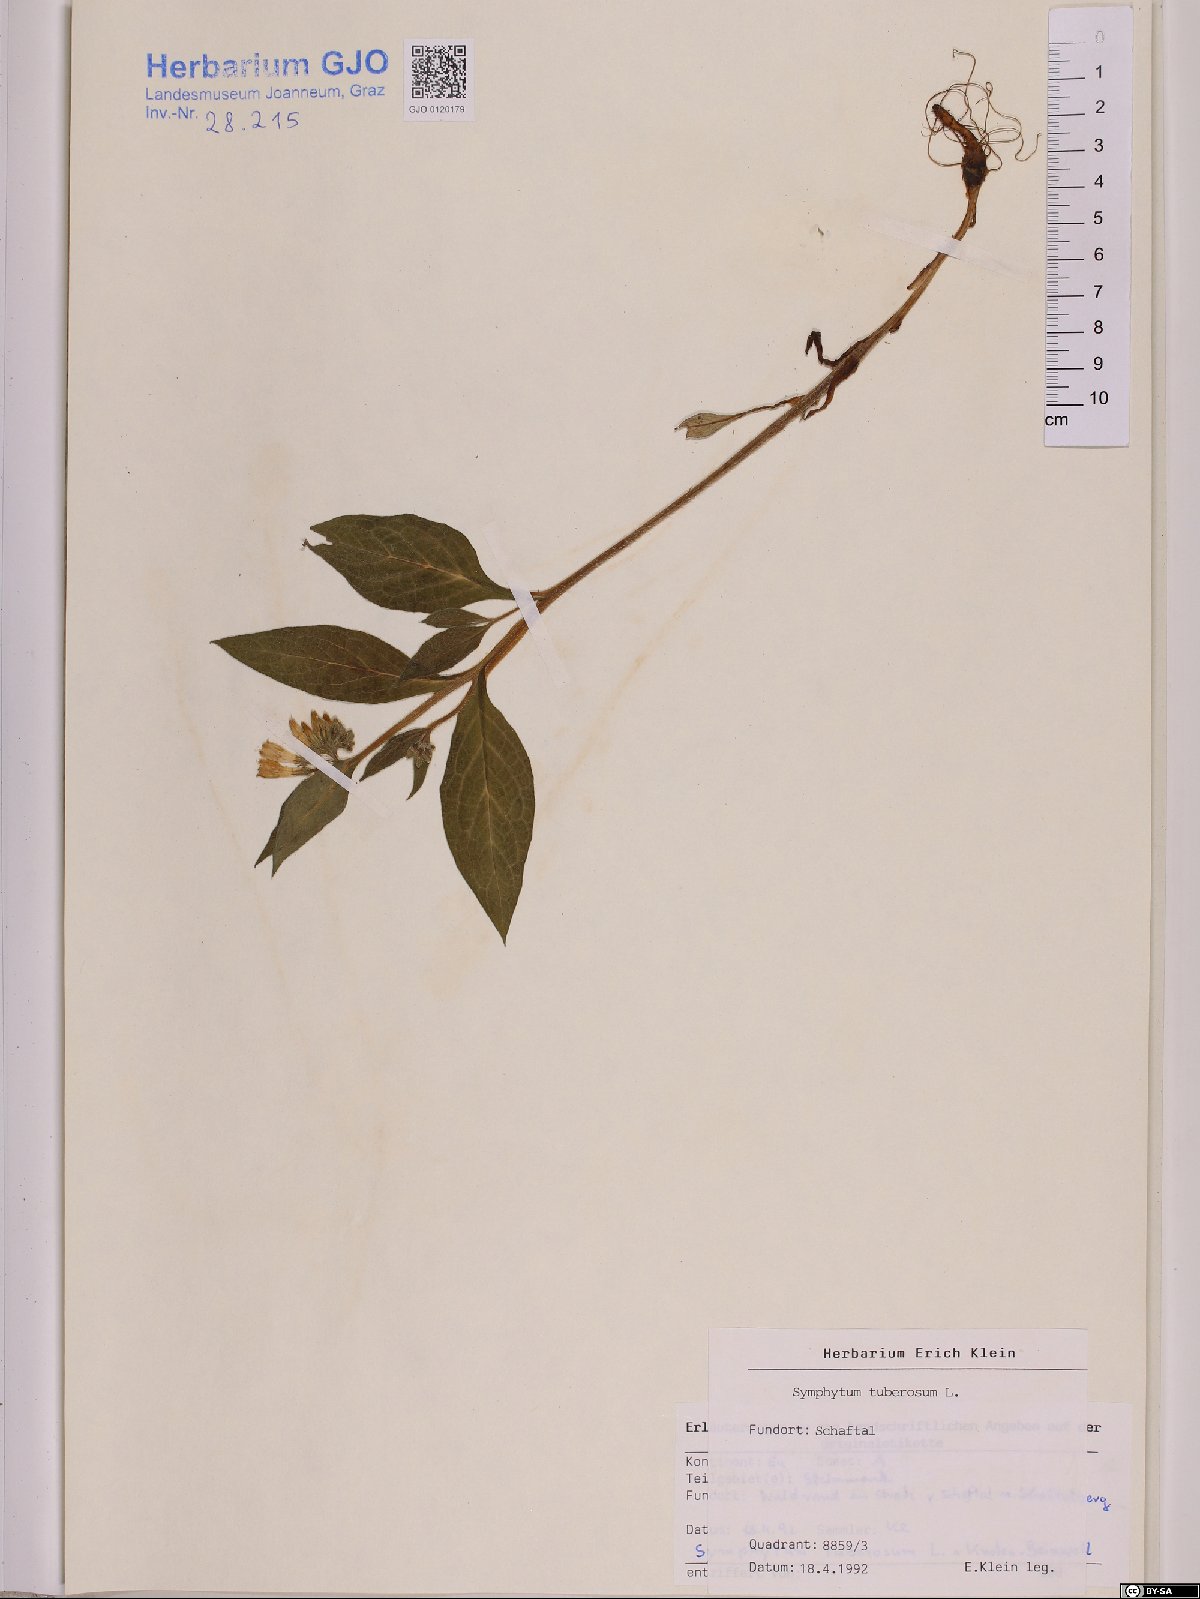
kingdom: Plantae
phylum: Tracheophyta
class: Magnoliopsida
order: Boraginales
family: Boraginaceae
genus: Symphytum
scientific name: Symphytum tuberosum
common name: Tuberous comfrey
